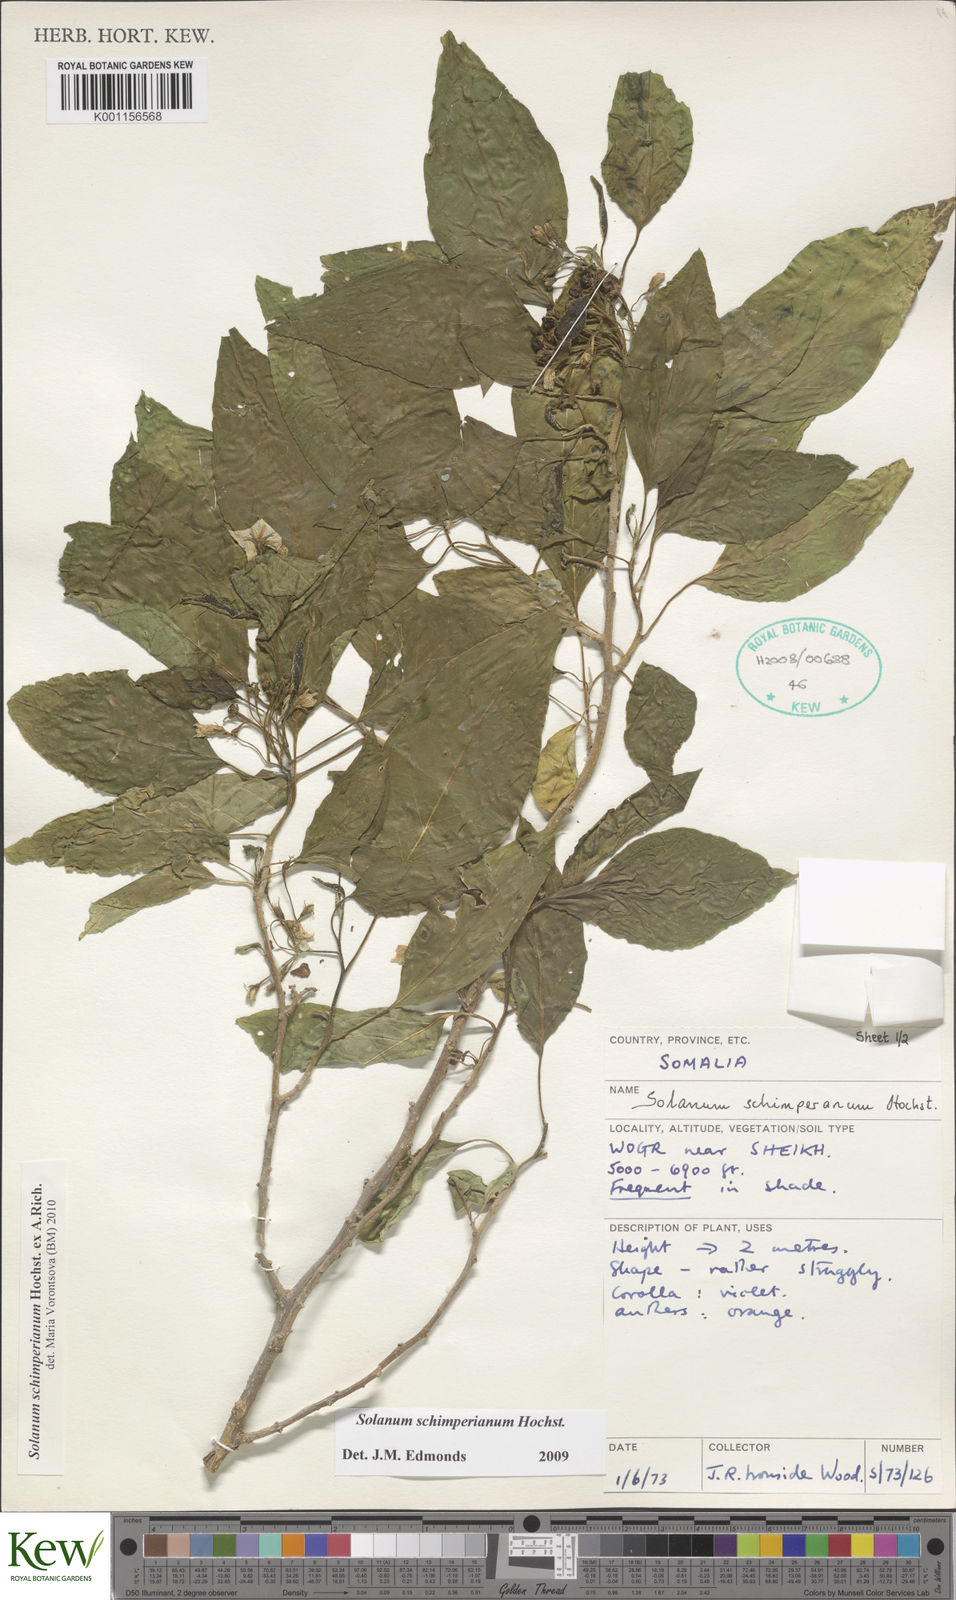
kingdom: Plantae
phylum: Tracheophyta
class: Magnoliopsida
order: Solanales
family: Solanaceae
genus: Solanum
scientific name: Solanum
